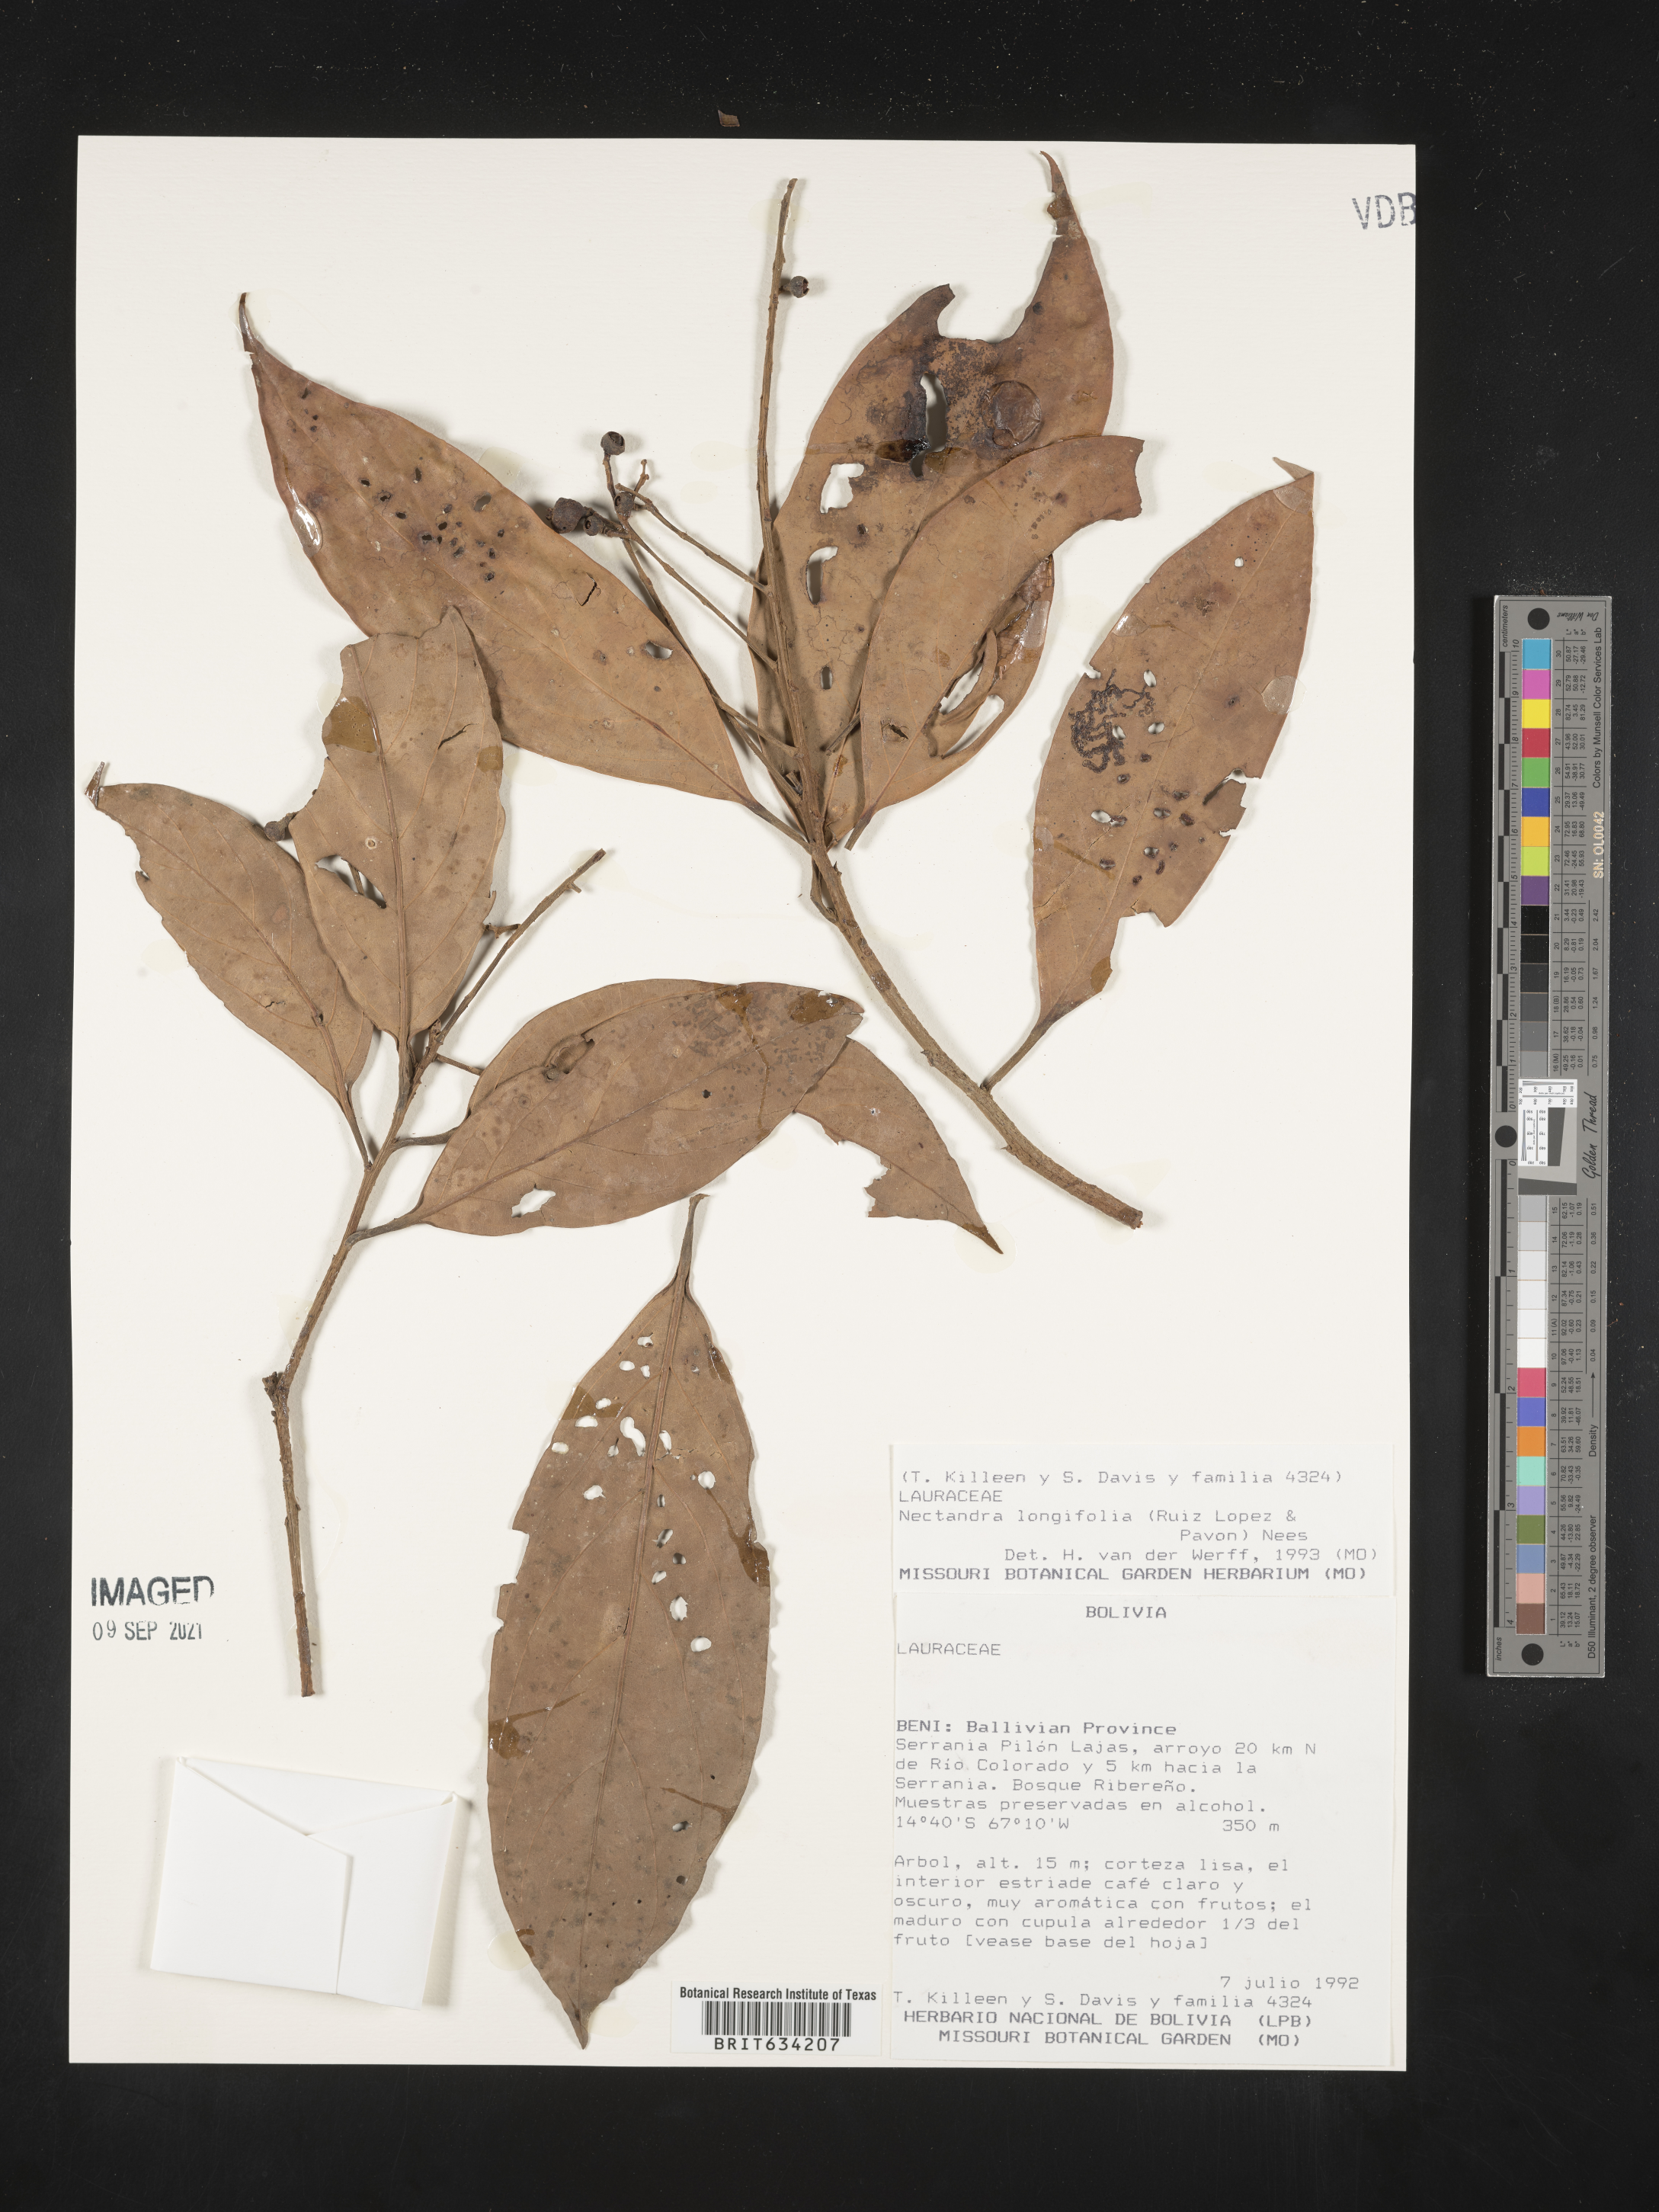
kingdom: Plantae
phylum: Tracheophyta
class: Magnoliopsida
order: Laurales
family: Lauraceae
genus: Nectandra
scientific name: Nectandra
